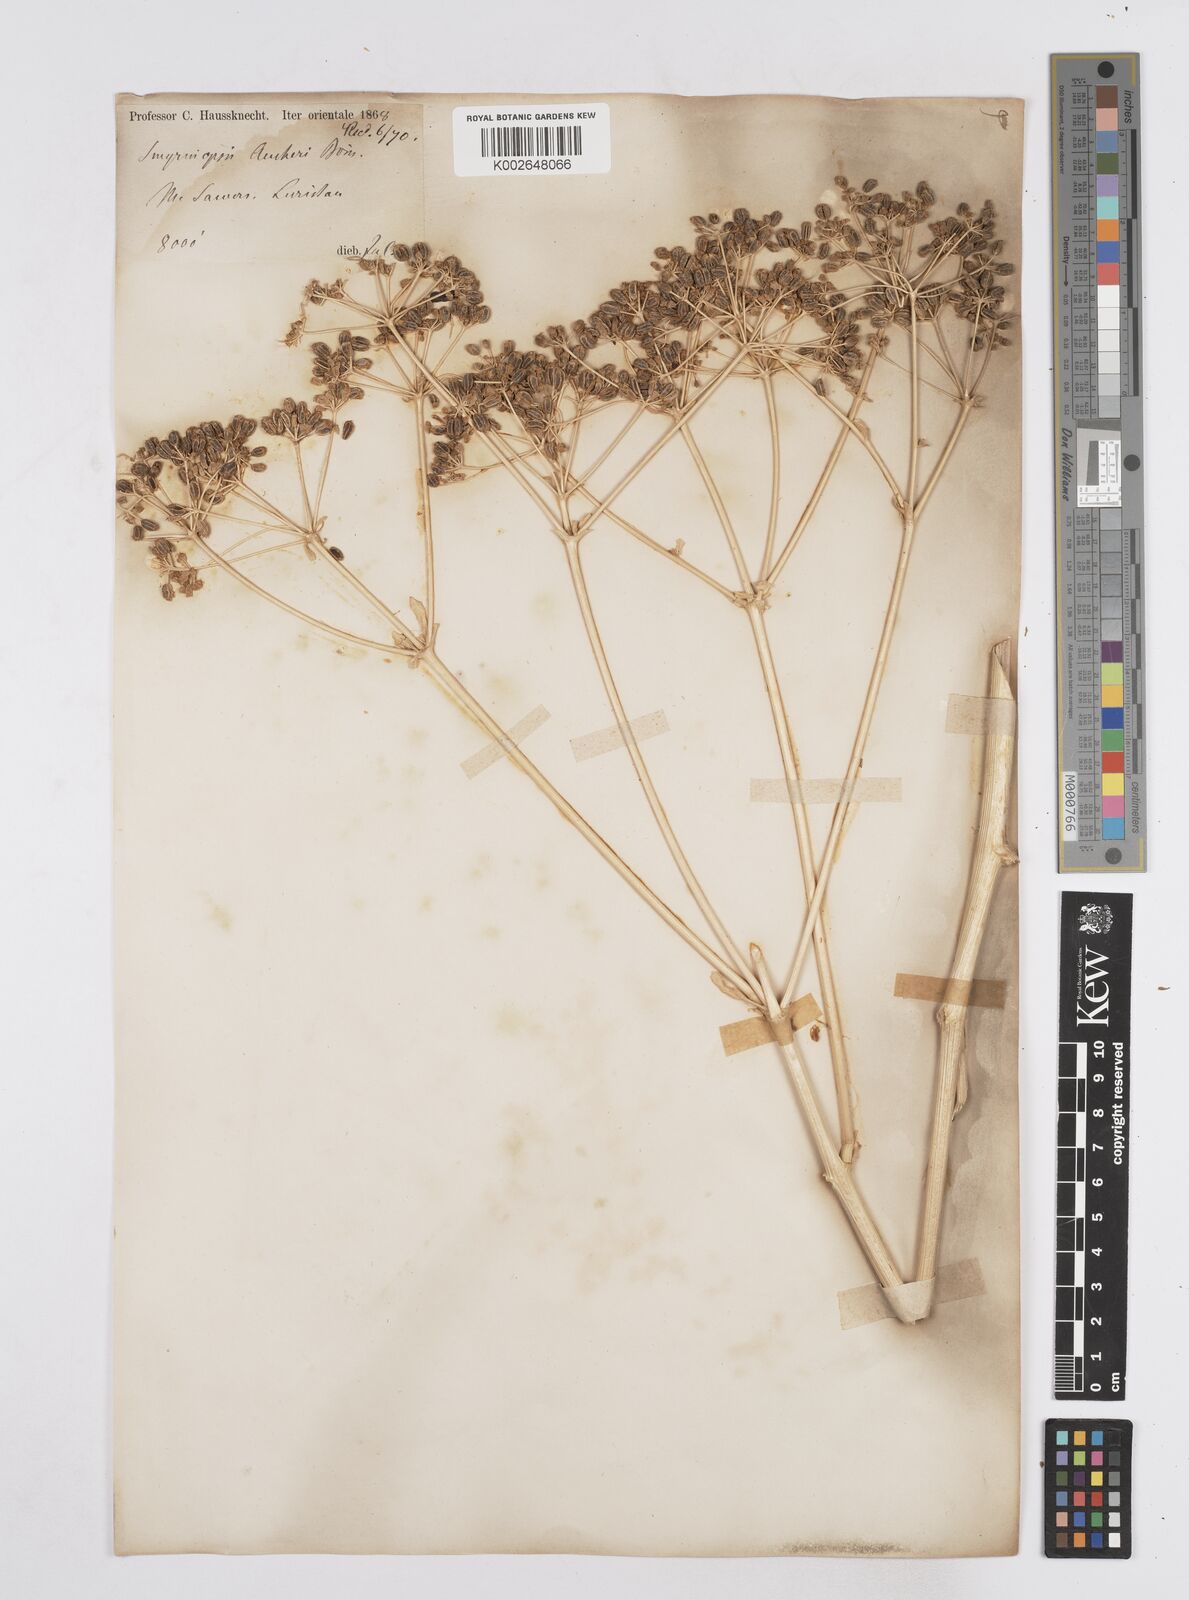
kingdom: Plantae
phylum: Tracheophyta
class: Magnoliopsida
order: Apiales
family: Apiaceae
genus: Smyrniopsis
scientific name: Smyrniopsis aucheri
